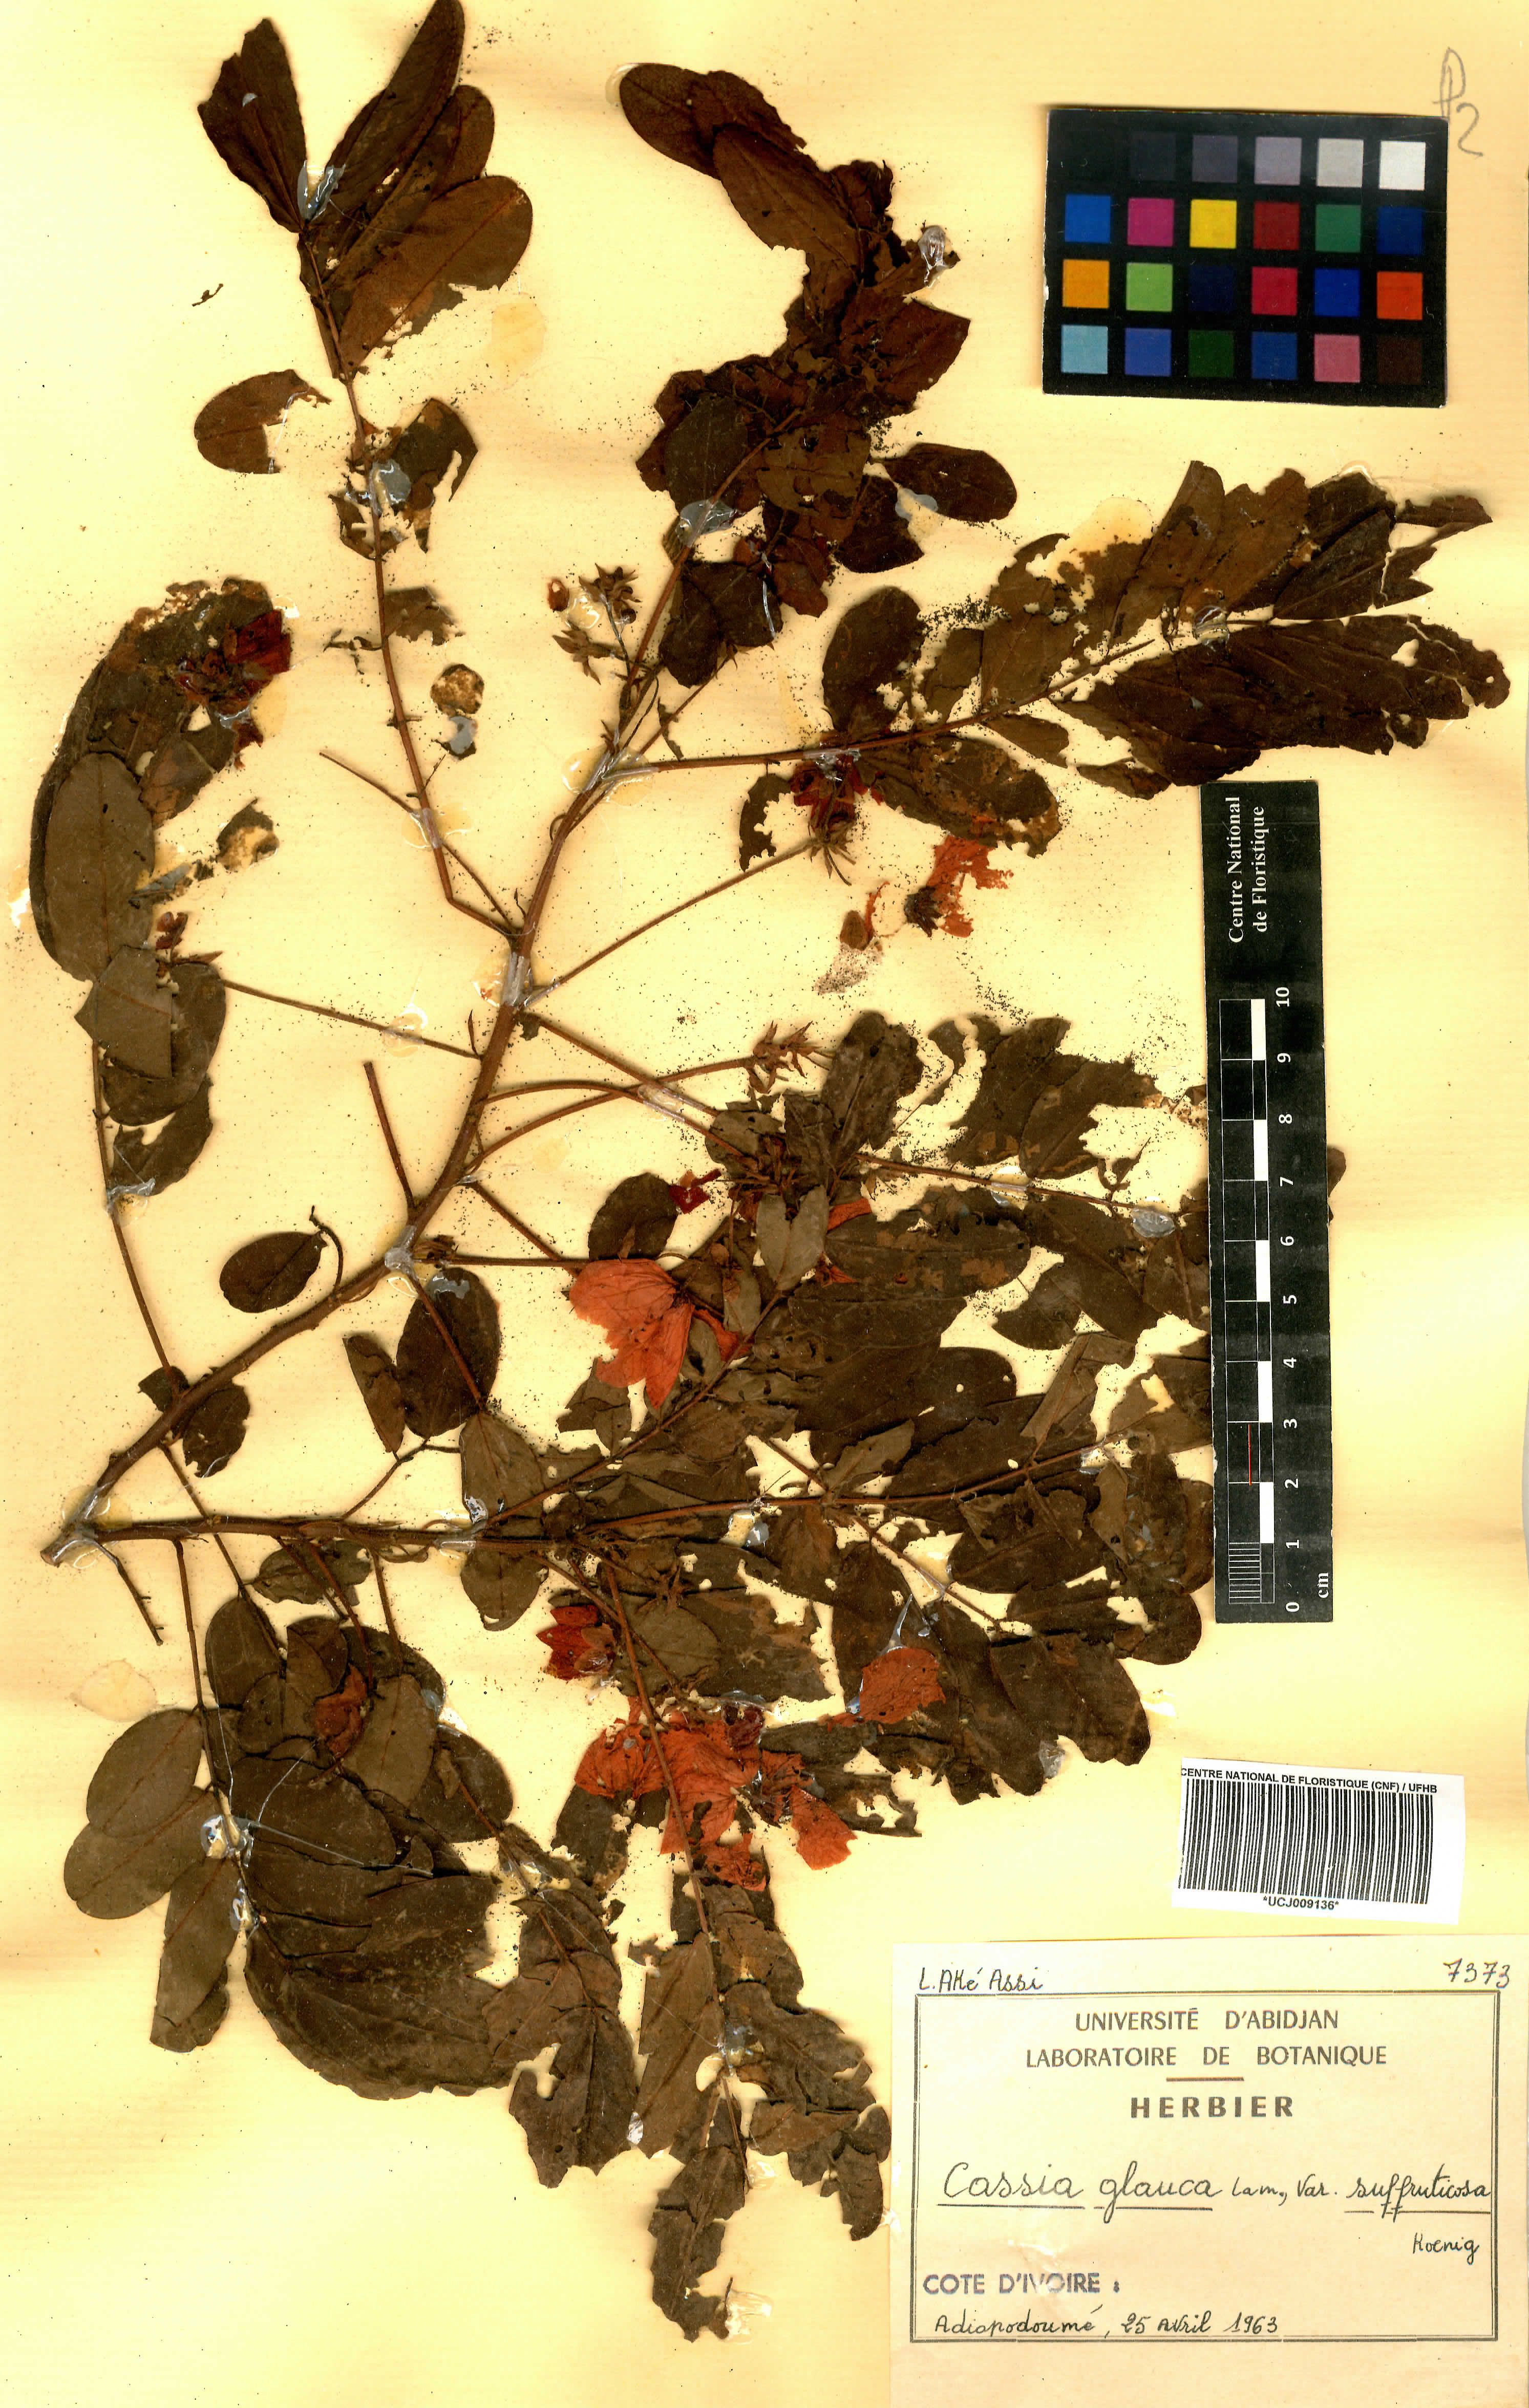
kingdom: Plantae
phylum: Tracheophyta
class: Magnoliopsida
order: Fabales
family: Fabaceae
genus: Senna
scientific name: Senna surattensis
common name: Glossy shower
